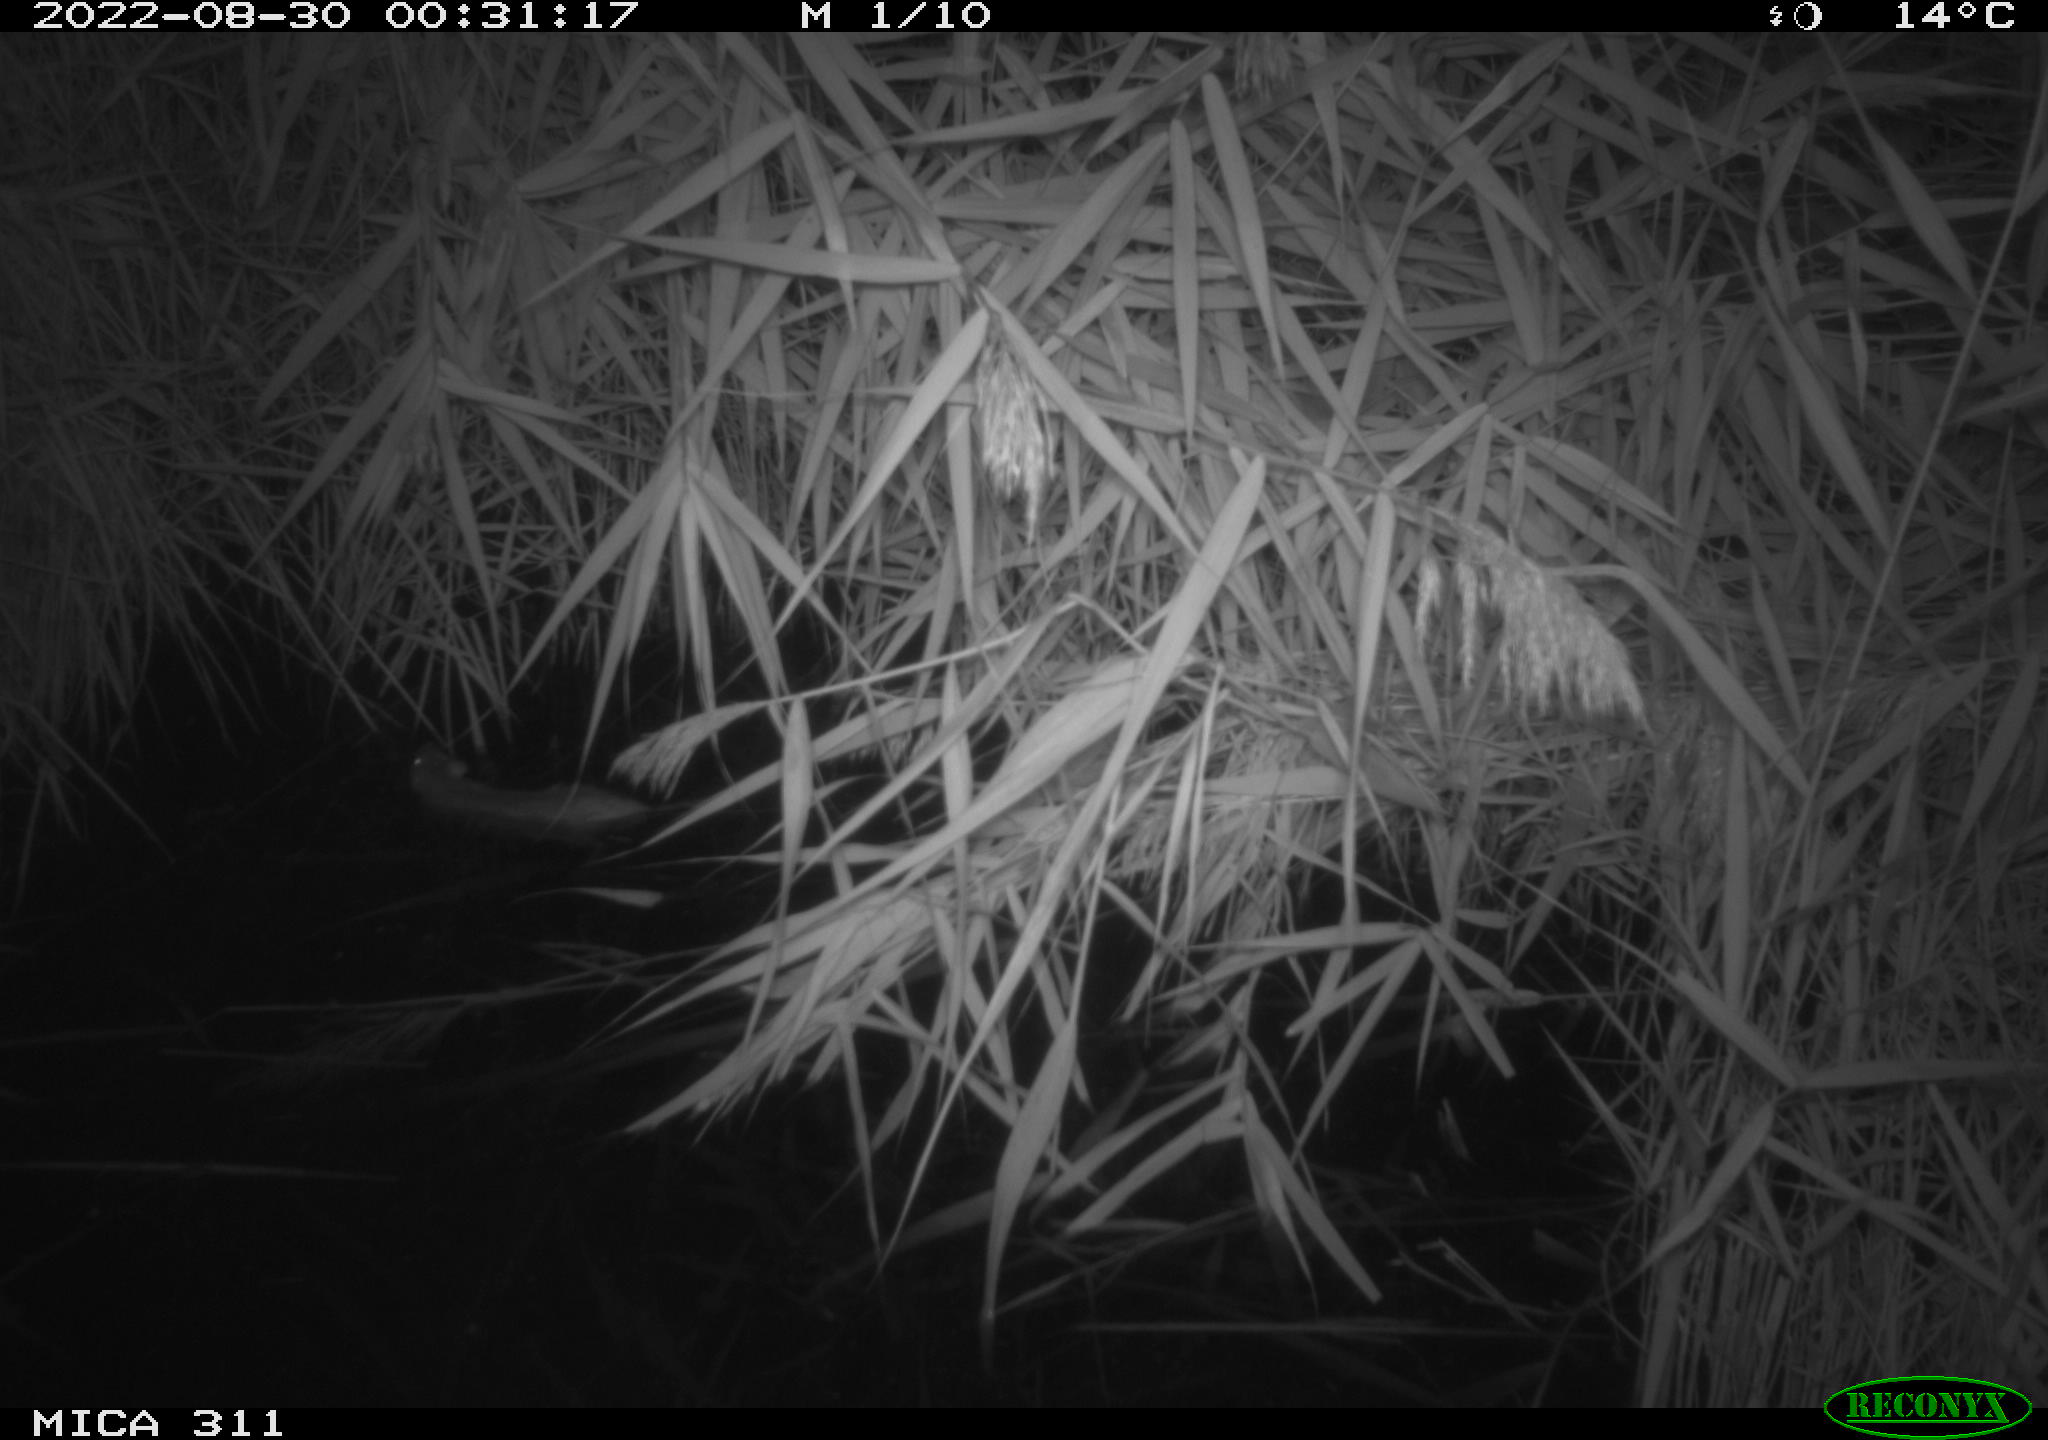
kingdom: Animalia
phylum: Chordata
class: Mammalia
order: Rodentia
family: Muridae
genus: Rattus
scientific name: Rattus norvegicus
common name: Brown rat
